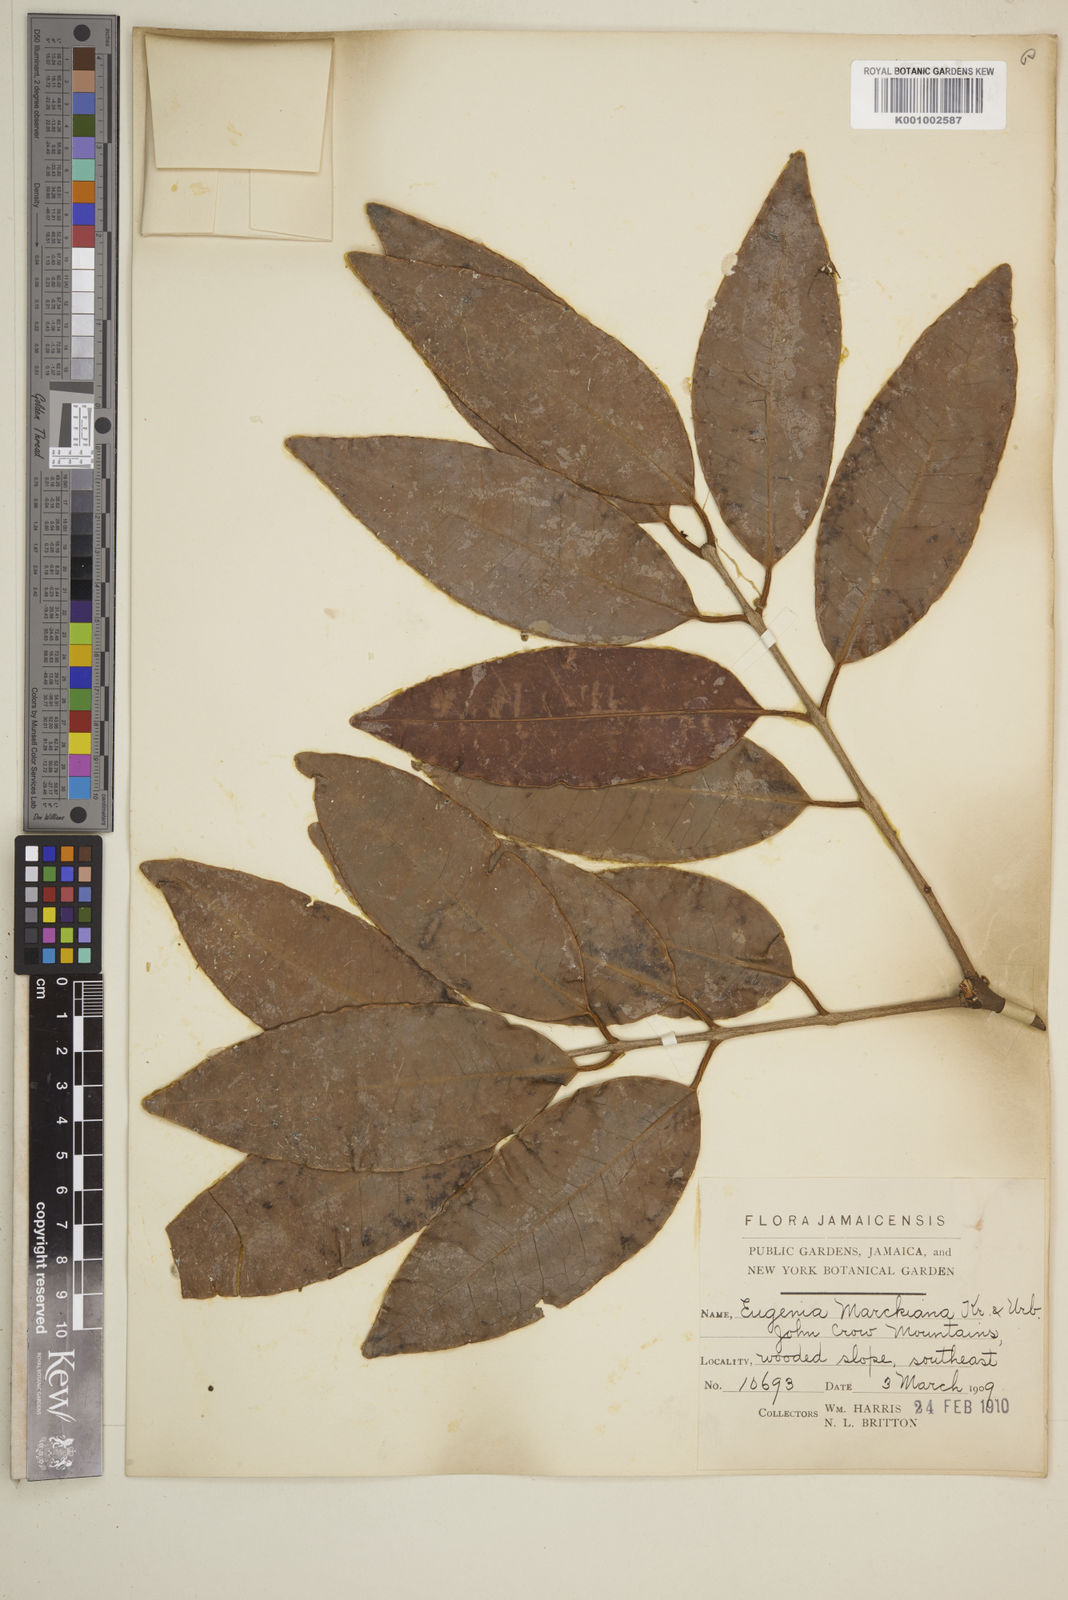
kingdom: Plantae
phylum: Tracheophyta
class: Magnoliopsida
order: Myrtales
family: Myrtaceae
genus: Eugenia
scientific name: Eugenia marshiana
